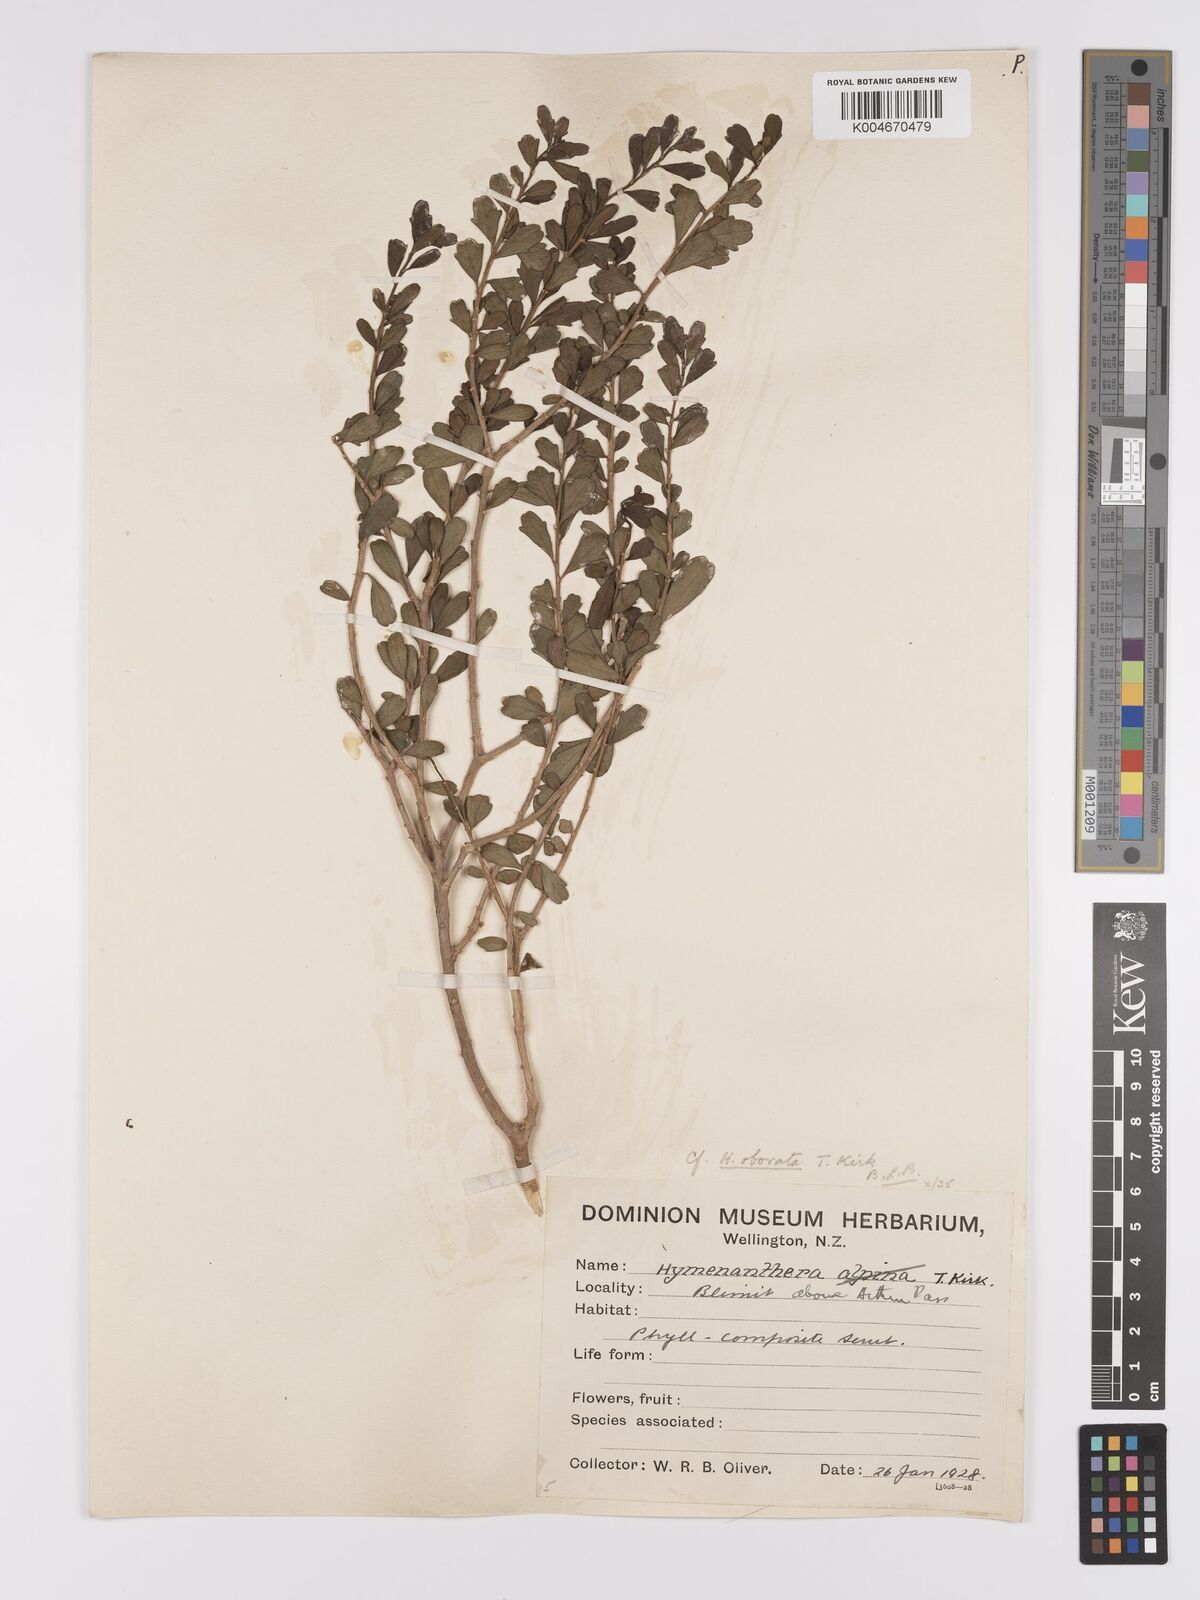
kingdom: Plantae
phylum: Tracheophyta
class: Magnoliopsida
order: Malpighiales
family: Violaceae
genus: Melicytus
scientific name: Melicytus obovatus
